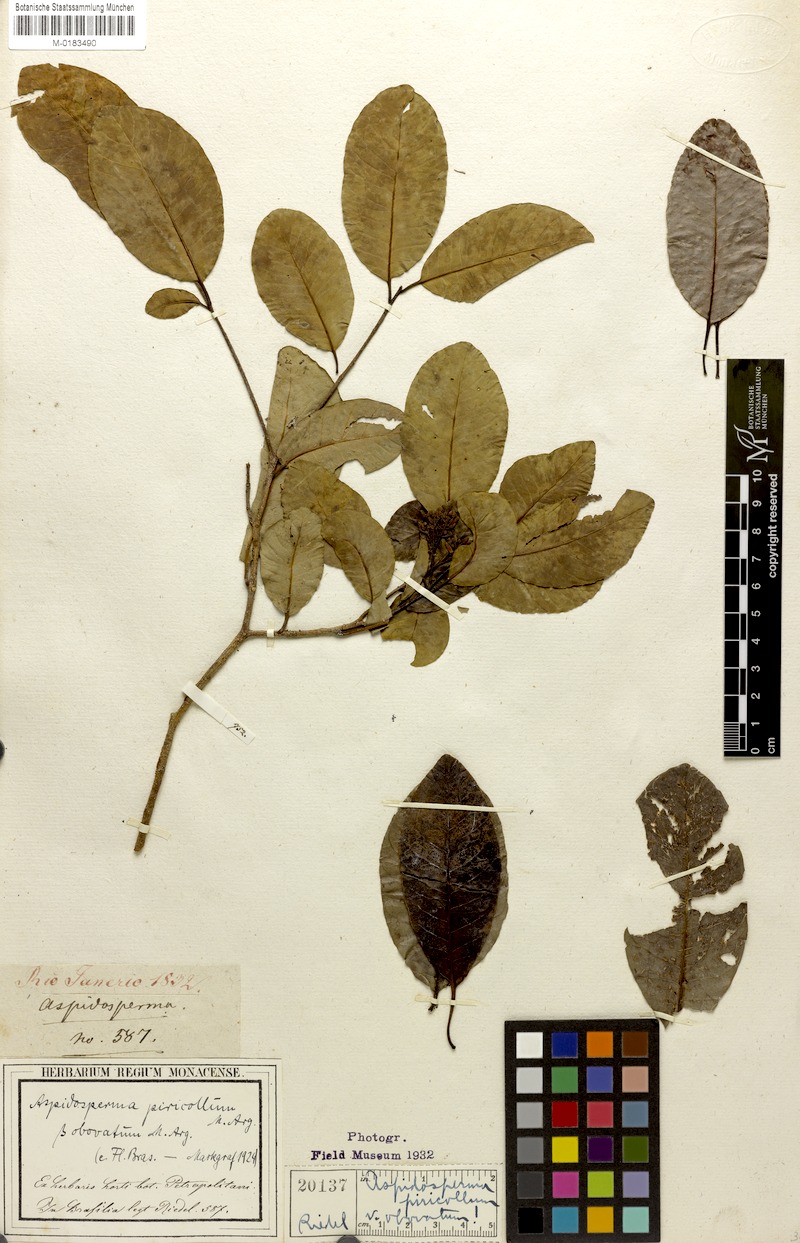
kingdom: Plantae
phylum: Tracheophyta
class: Magnoliopsida
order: Gentianales
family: Apocynaceae
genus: Aspidosperma
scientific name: Aspidosperma pyricollum
